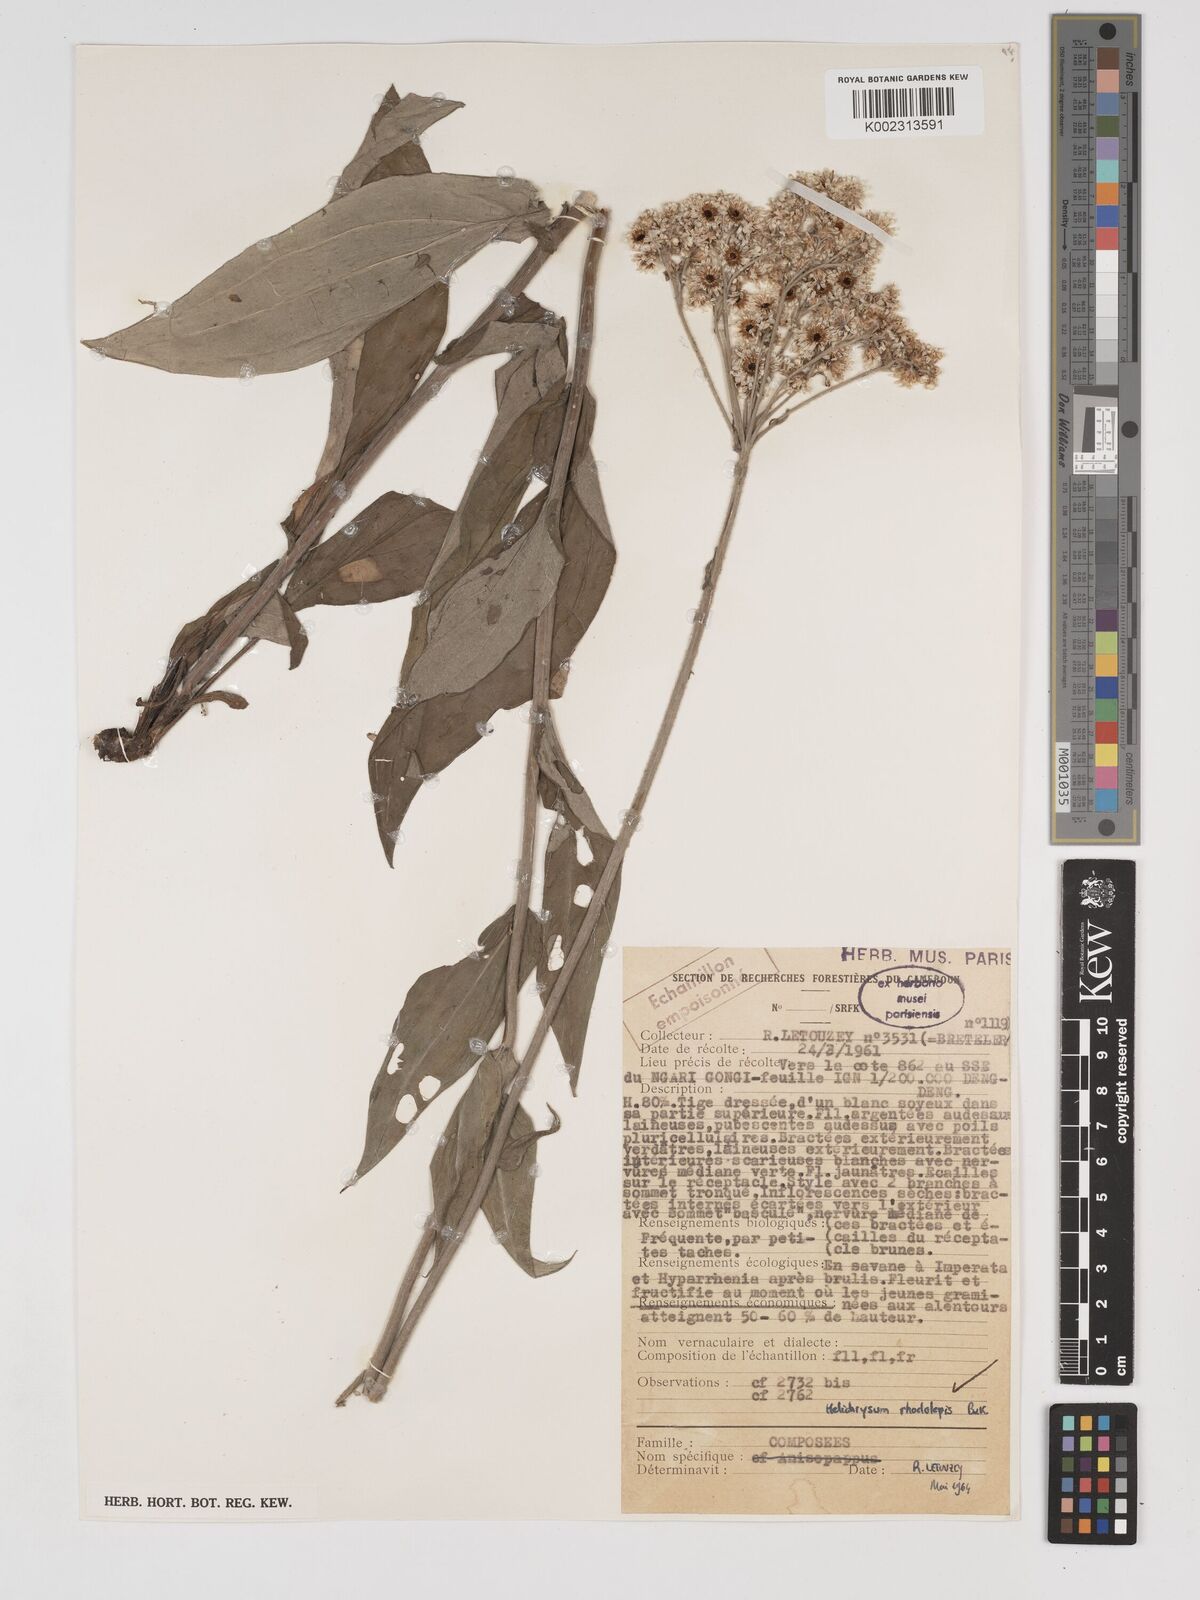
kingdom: Plantae
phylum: Tracheophyta
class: Magnoliopsida
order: Asterales
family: Asteraceae
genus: Helichrysum
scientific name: Helichrysum nudifolium
